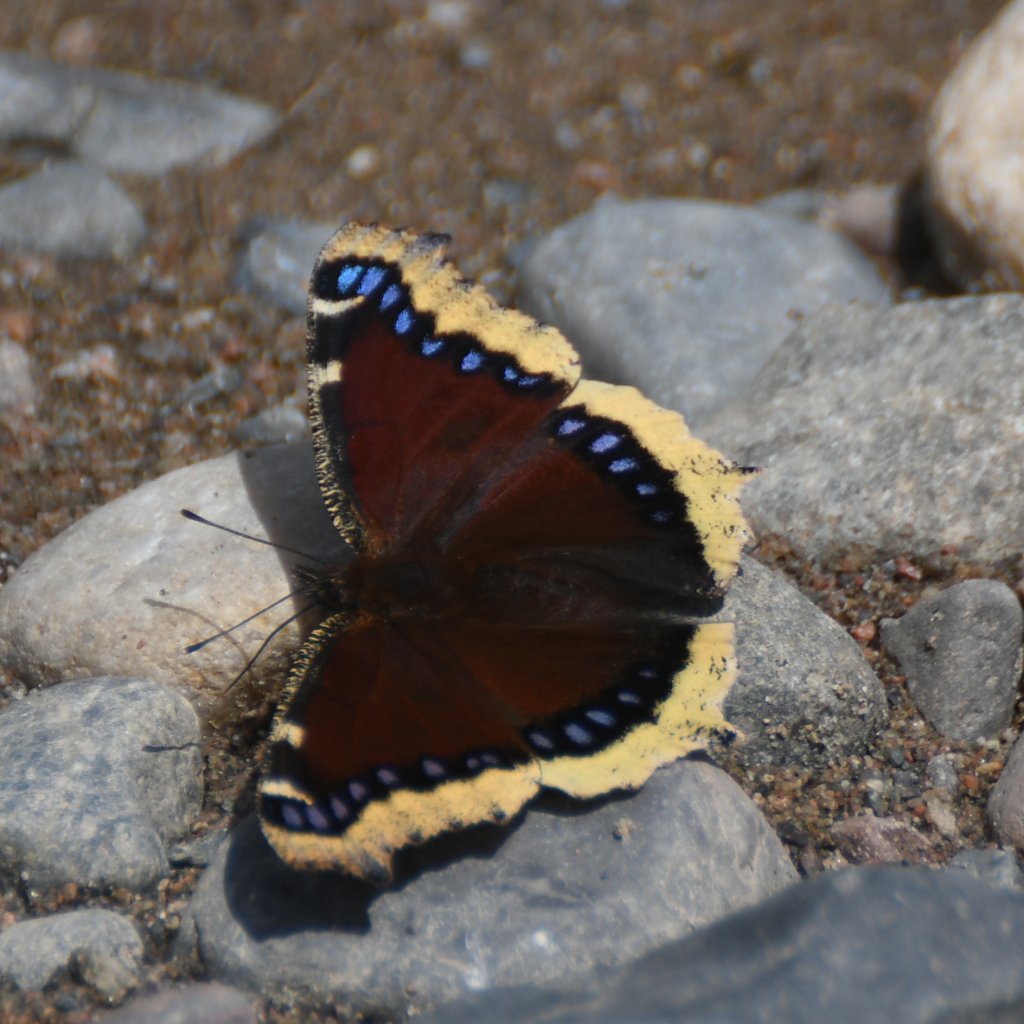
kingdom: Animalia
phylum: Arthropoda
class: Insecta
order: Lepidoptera
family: Nymphalidae
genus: Nymphalis
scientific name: Nymphalis antiopa
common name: Mourning Cloak
